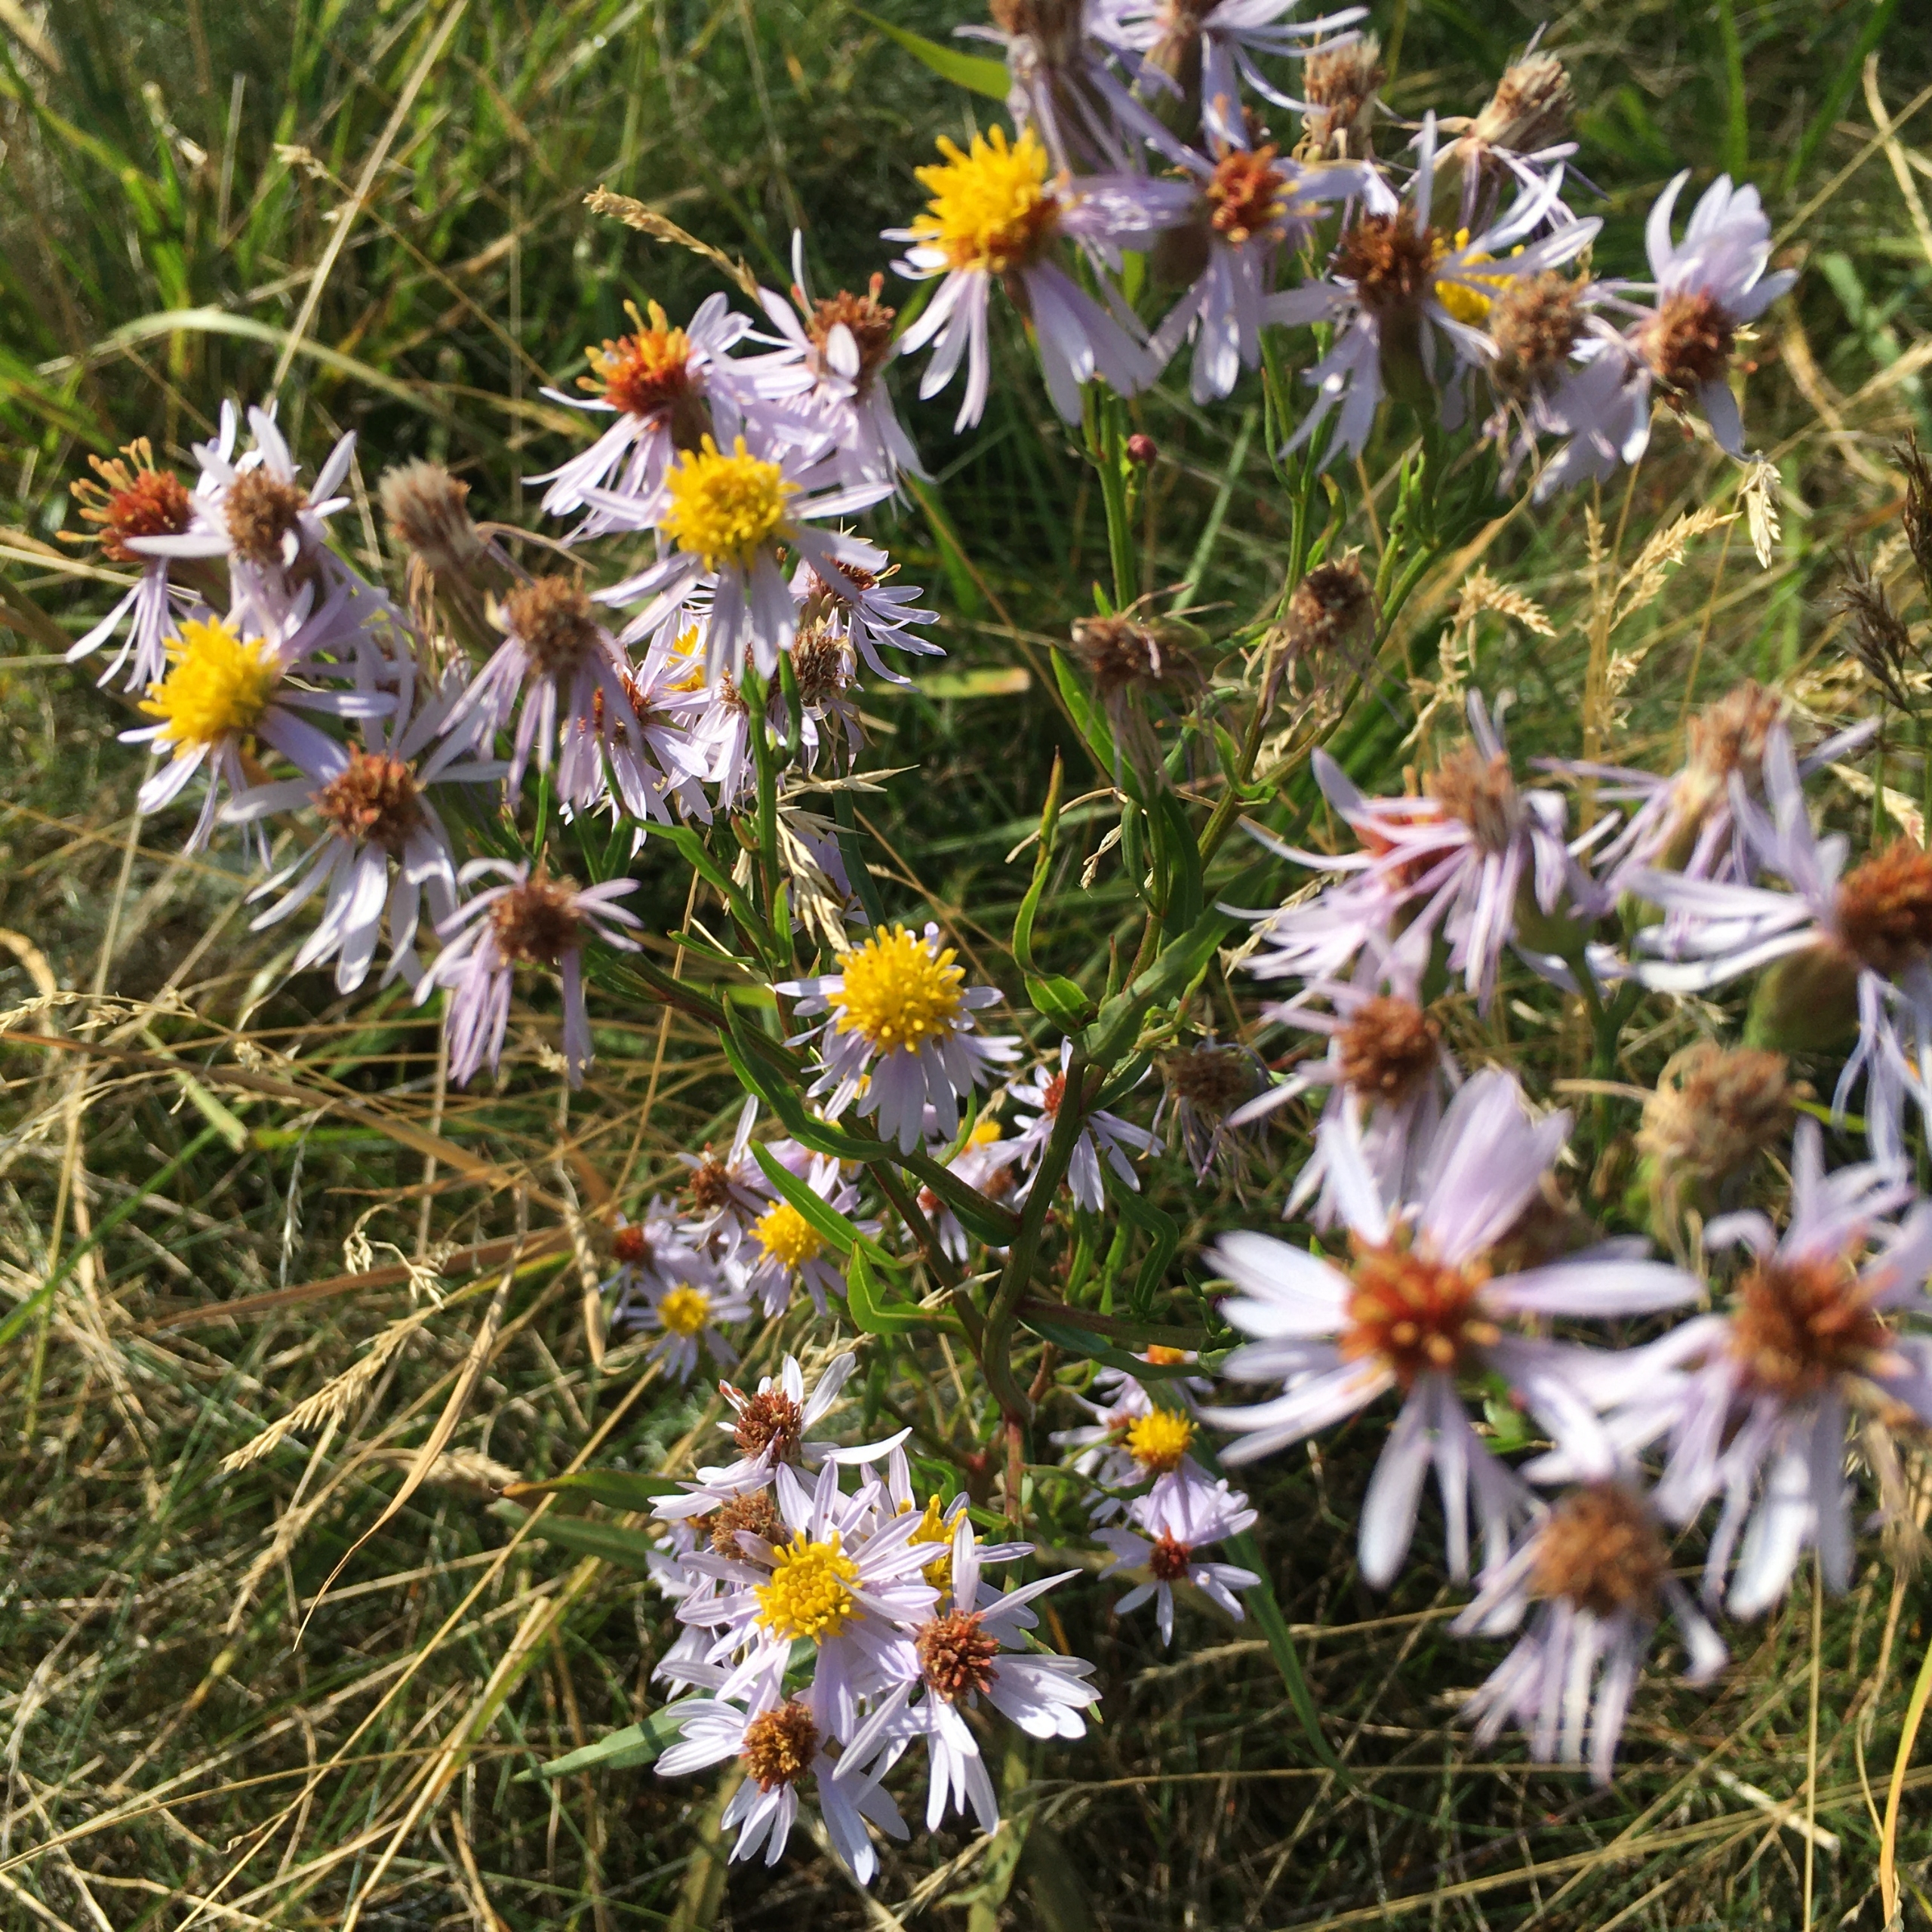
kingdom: Plantae
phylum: Tracheophyta
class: Magnoliopsida
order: Asterales
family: Asteraceae
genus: Tripolium
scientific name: Tripolium pannonicum
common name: Strandasters
